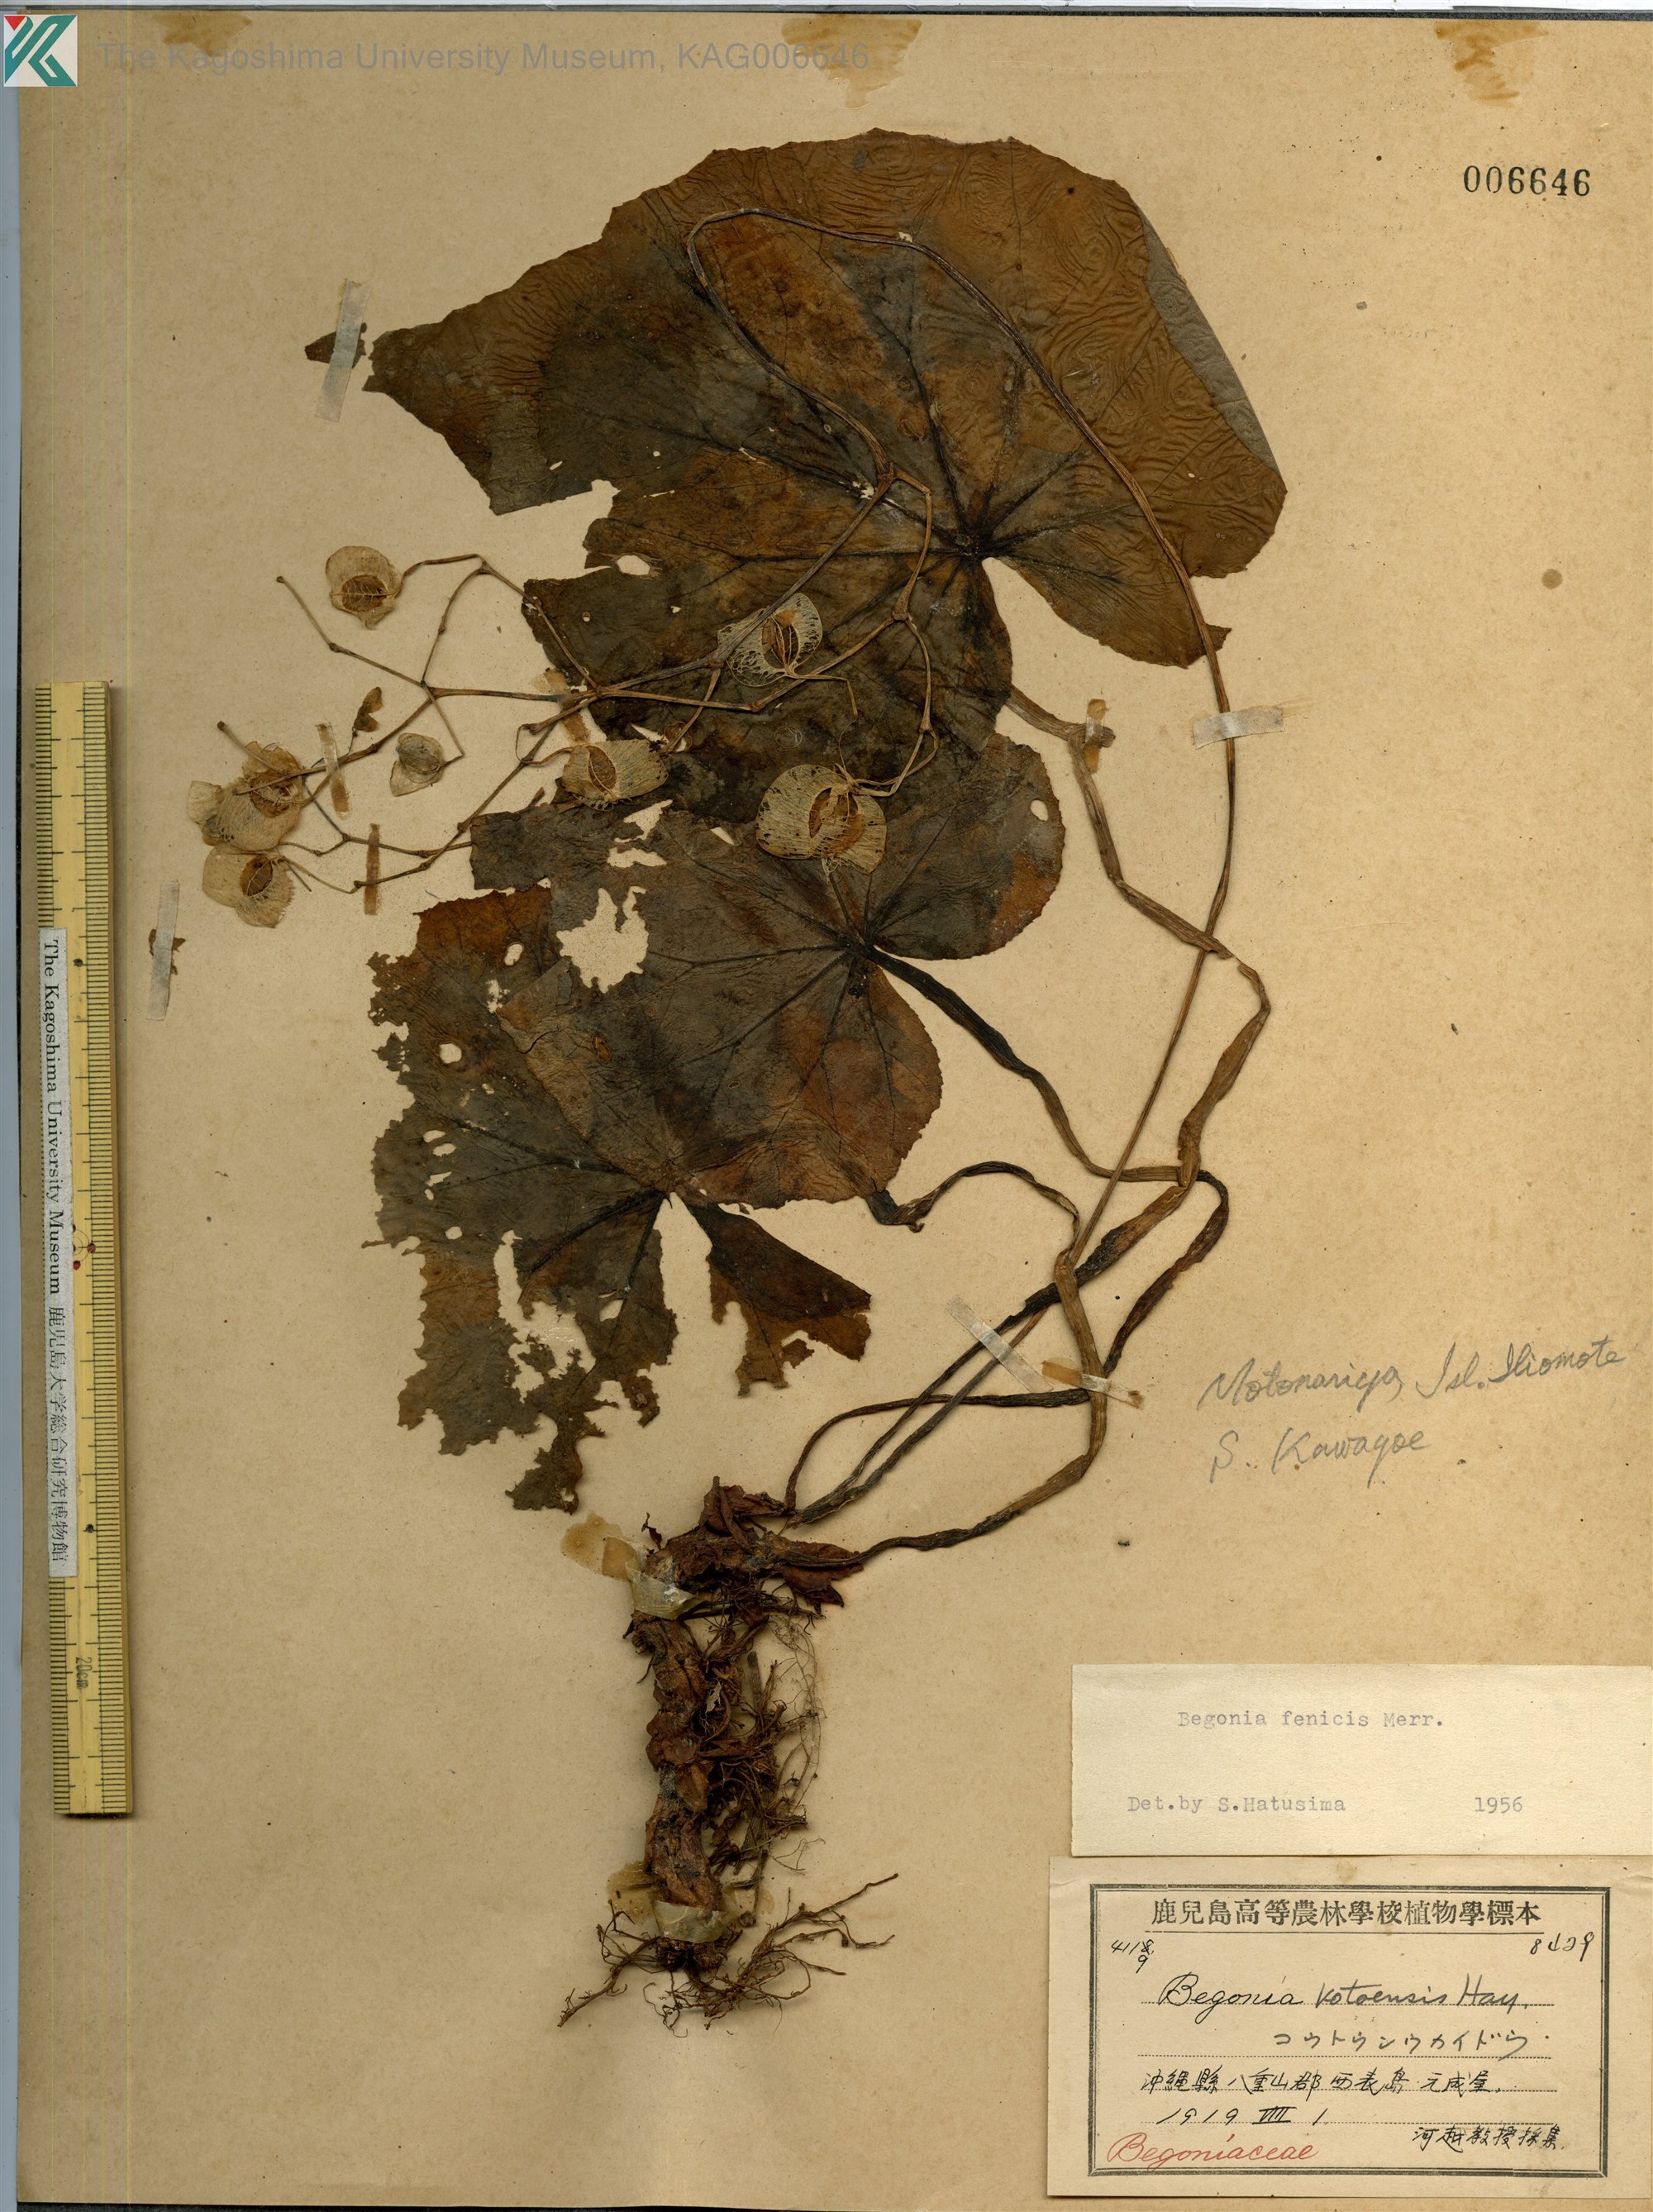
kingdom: Plantae
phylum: Tracheophyta
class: Magnoliopsida
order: Cucurbitales
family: Begoniaceae
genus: Begonia
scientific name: Begonia fenicis
